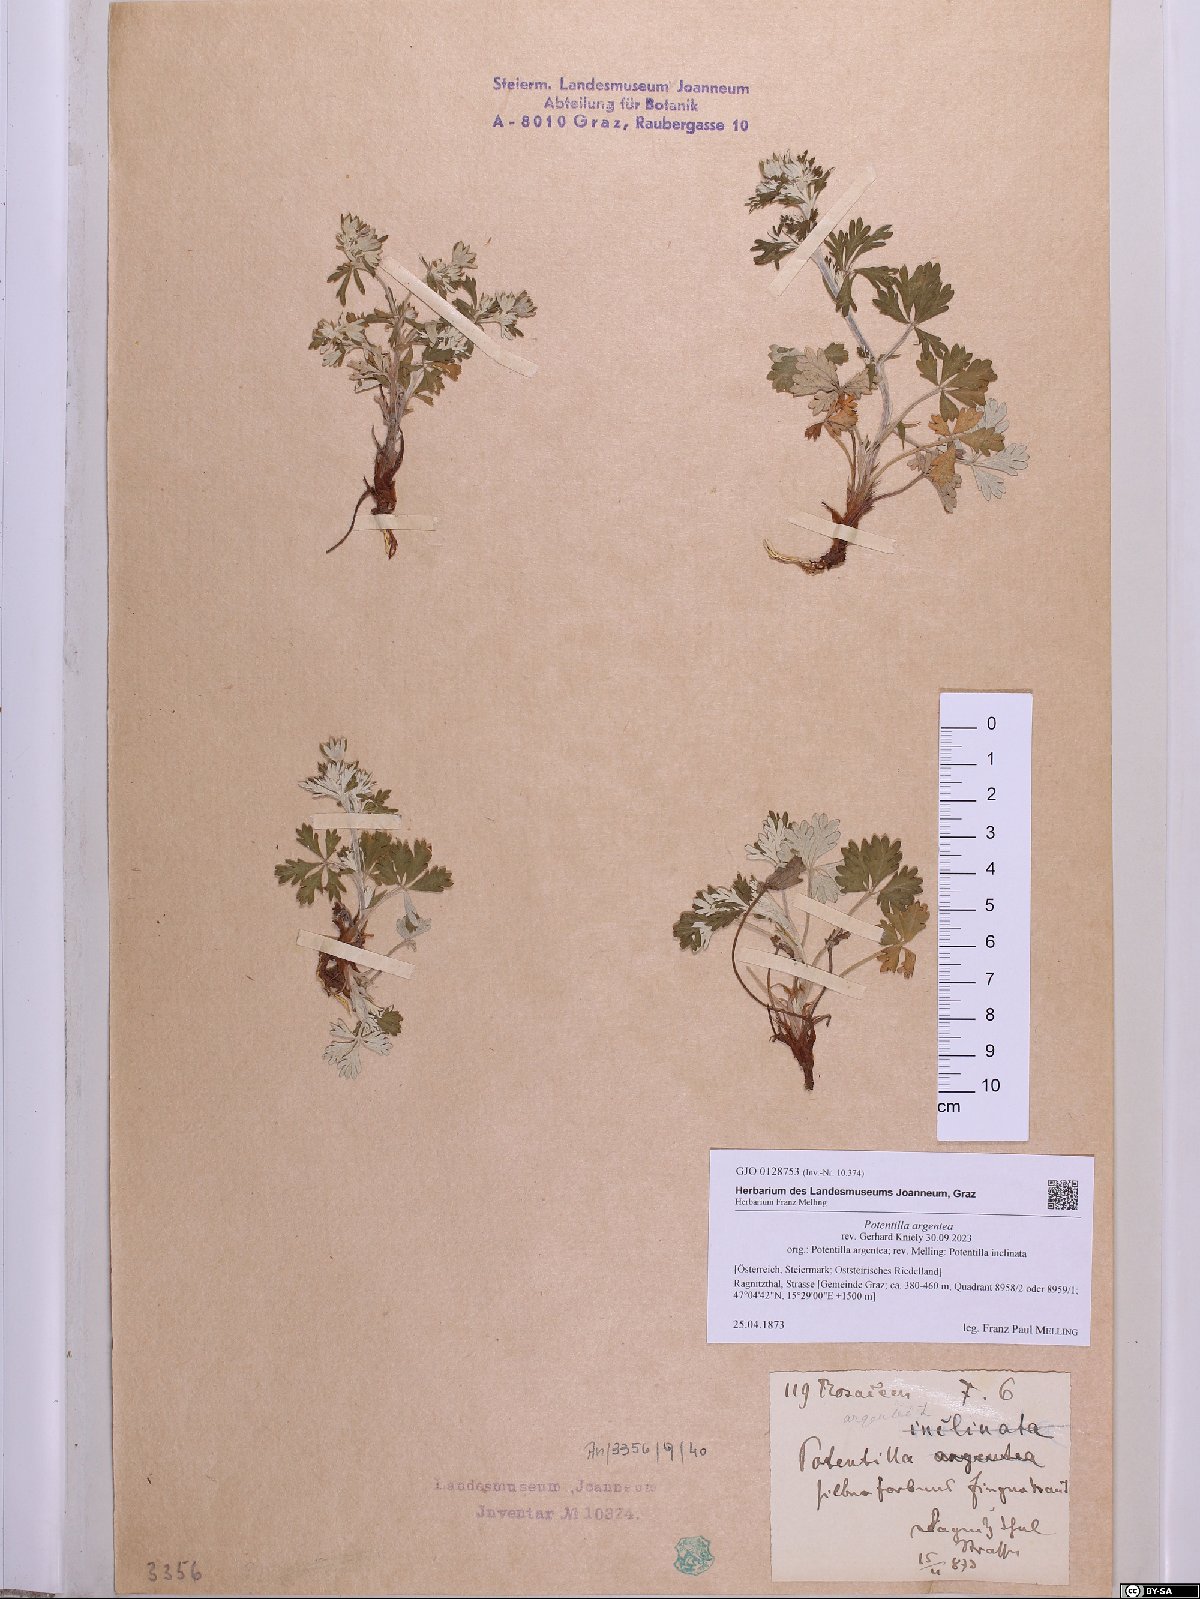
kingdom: Plantae
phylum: Tracheophyta
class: Magnoliopsida
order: Rosales
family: Rosaceae
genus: Potentilla
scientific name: Potentilla argentea
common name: Hoary cinquefoil
